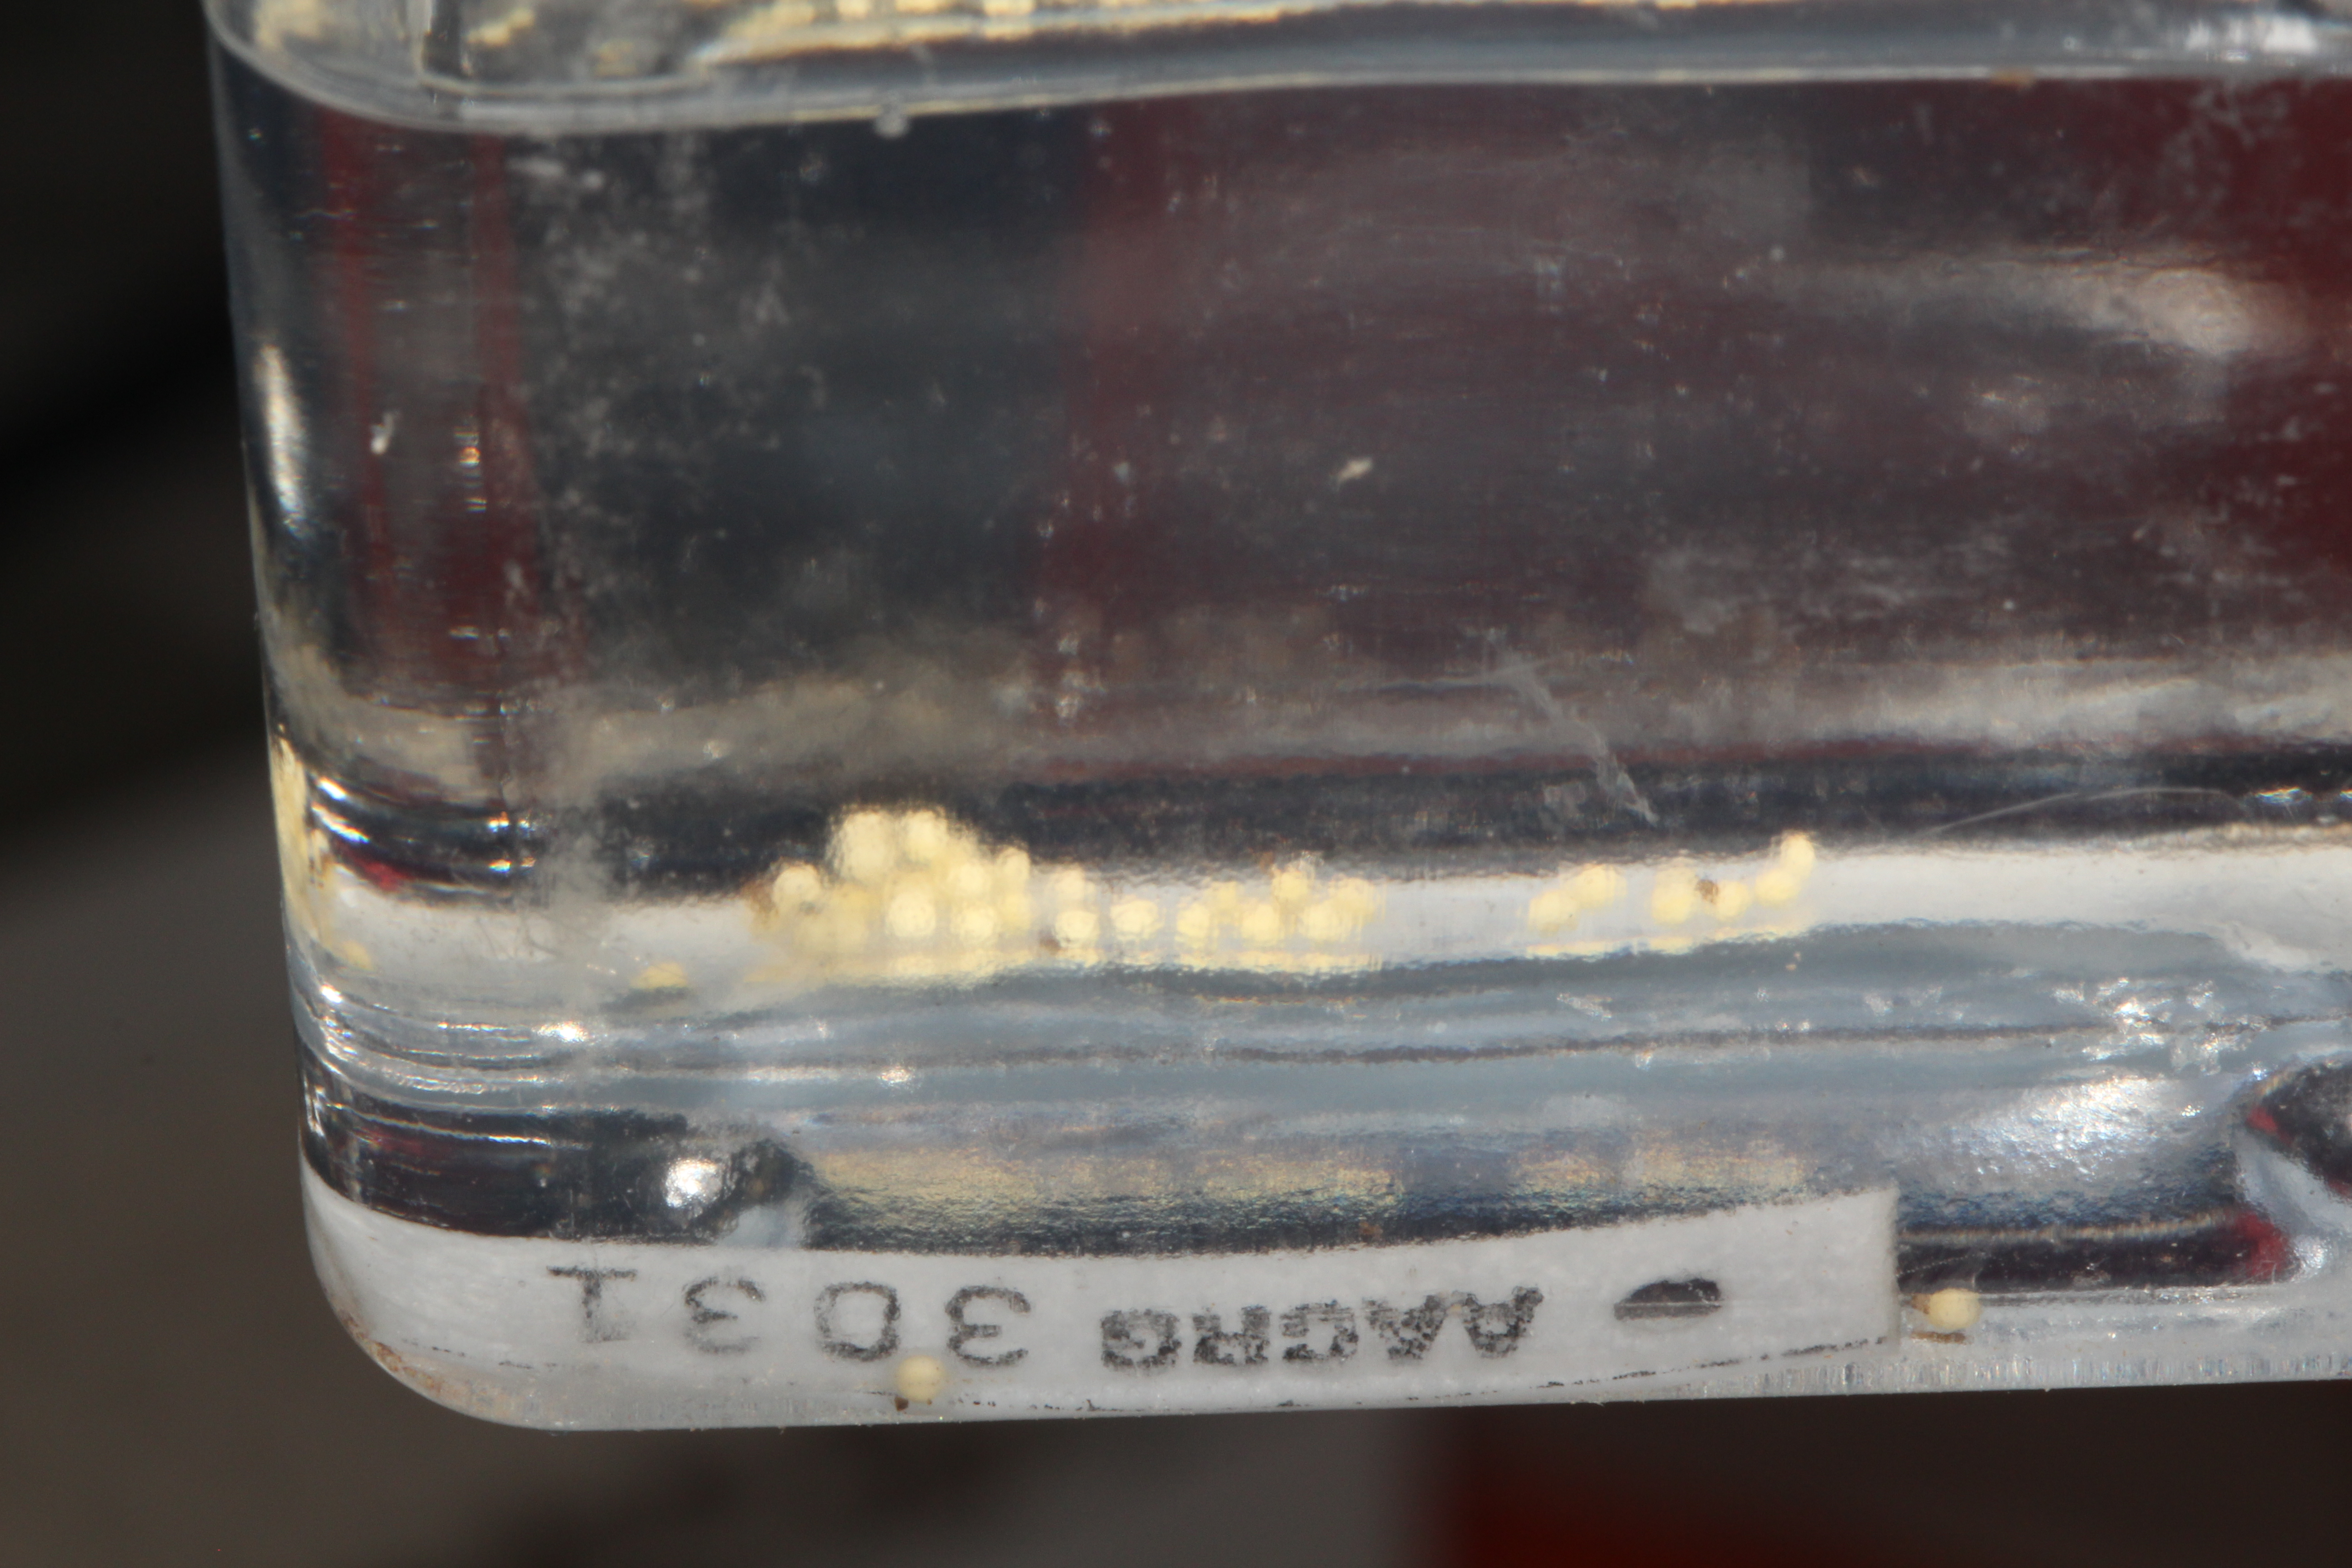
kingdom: Animalia
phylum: Chordata
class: Amphibia
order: Anura
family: Hyperoliidae
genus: Afrixalus
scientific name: Afrixalus aureus
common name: Golden banana frog
